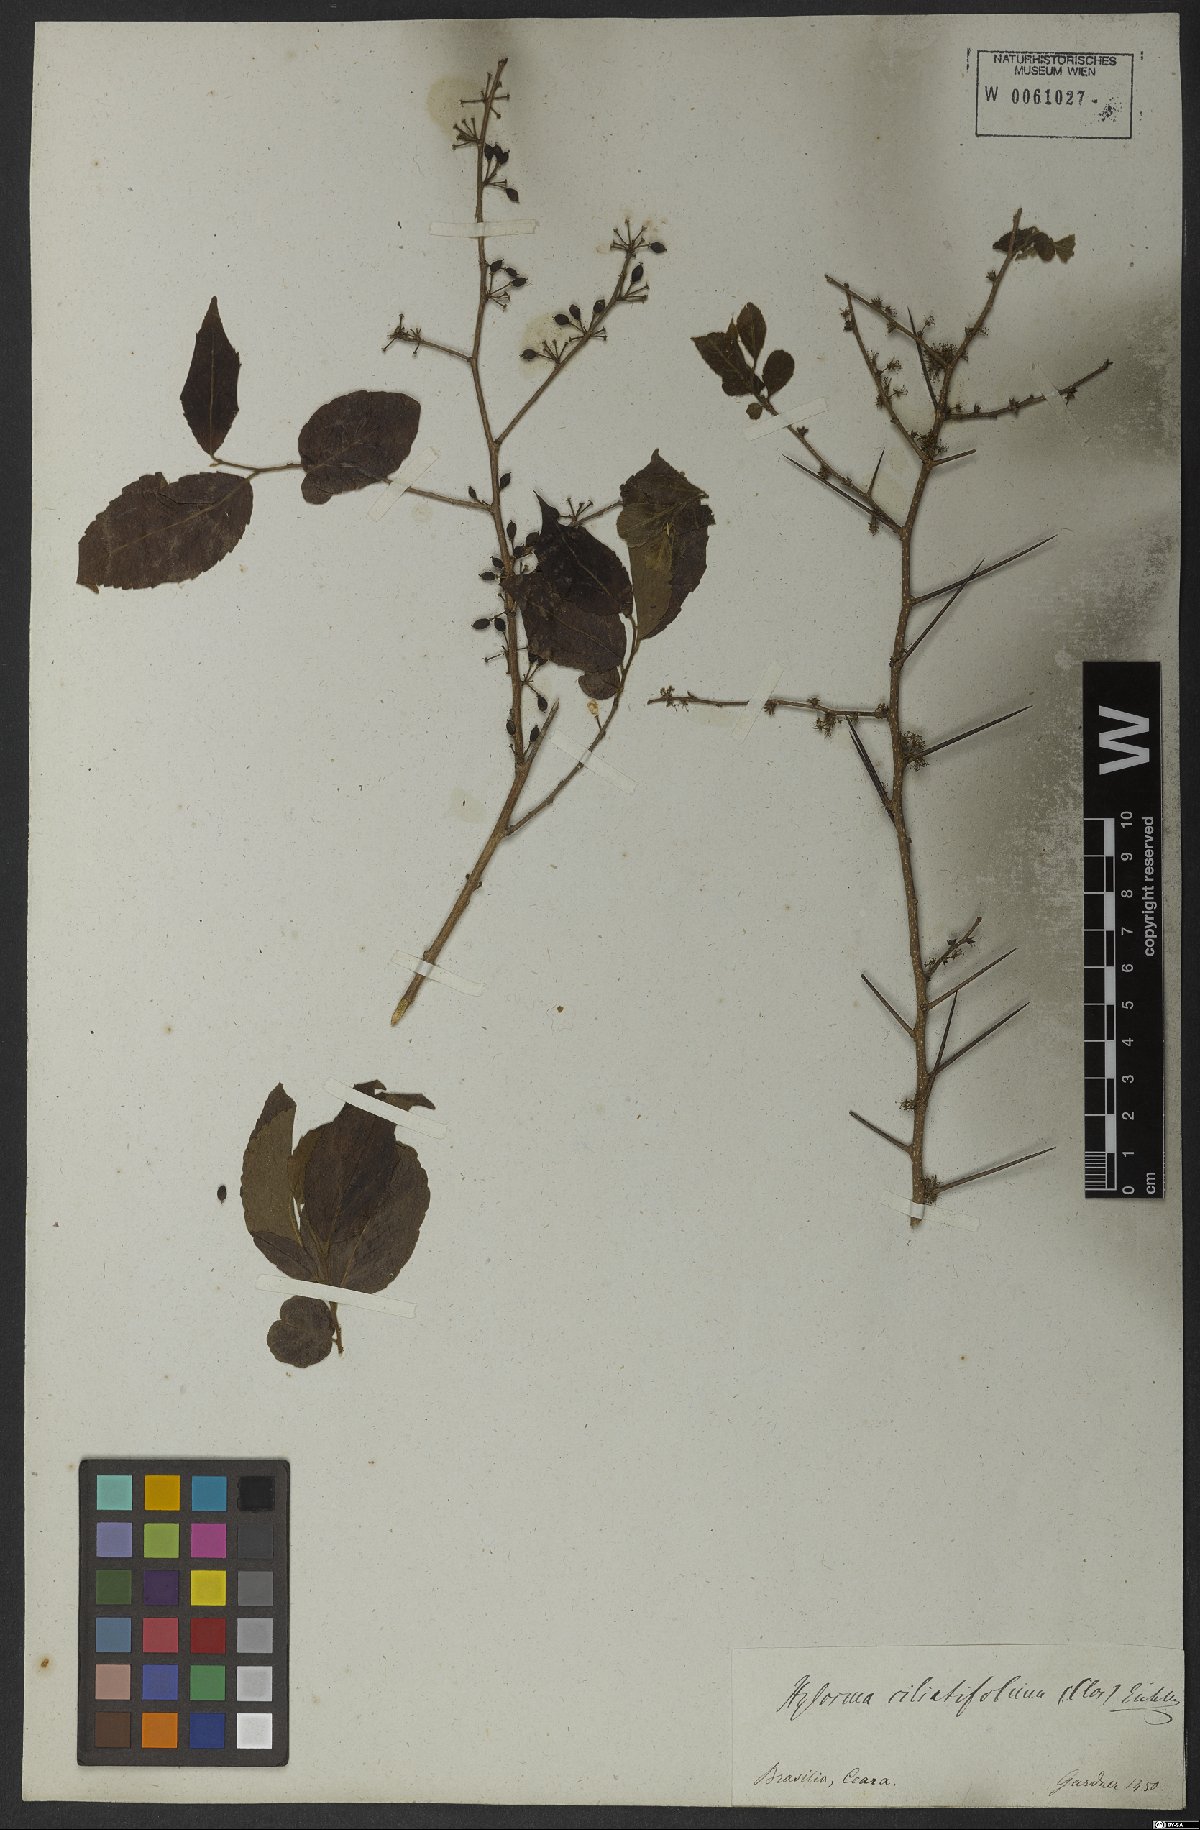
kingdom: Plantae
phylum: Tracheophyta
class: Magnoliopsida
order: Malpighiales
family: Salicaceae
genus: Xylosma
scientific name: Xylosma ciliatifolia
